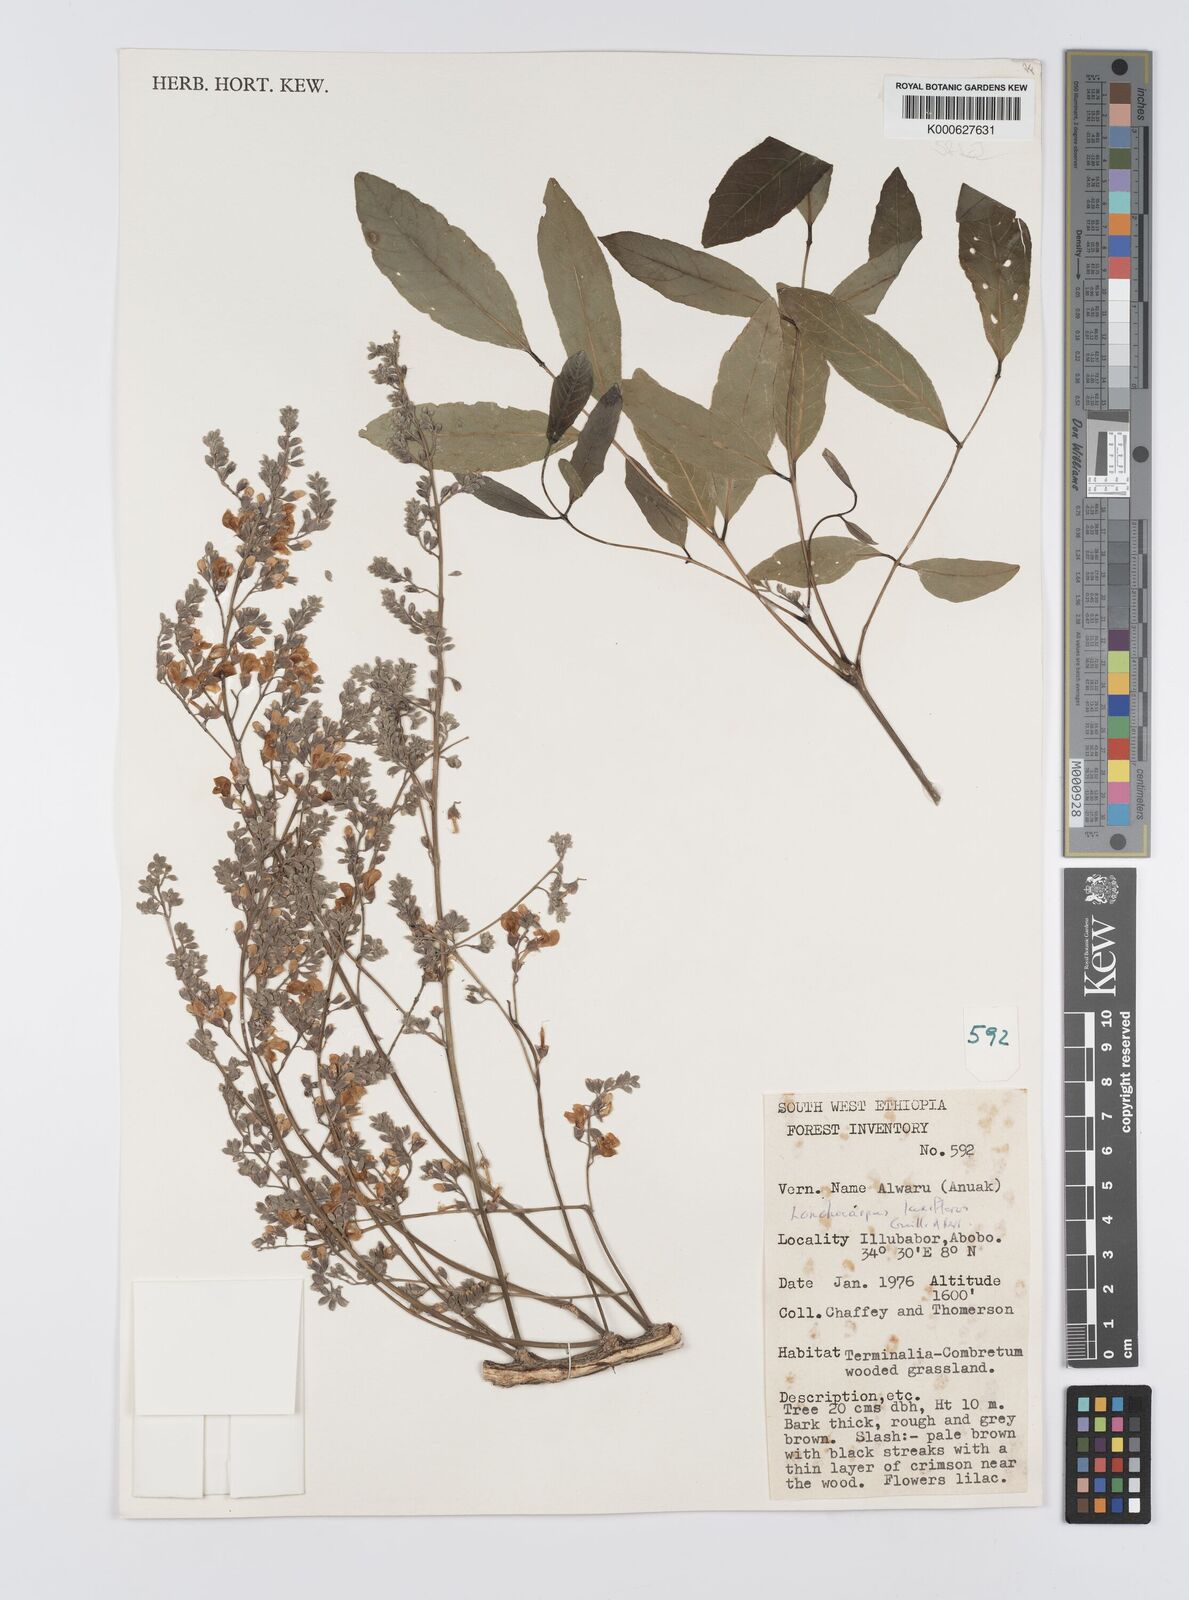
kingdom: Plantae
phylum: Tracheophyta
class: Magnoliopsida
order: Fabales
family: Fabaceae
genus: Philenoptera
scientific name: Philenoptera laxiflora
